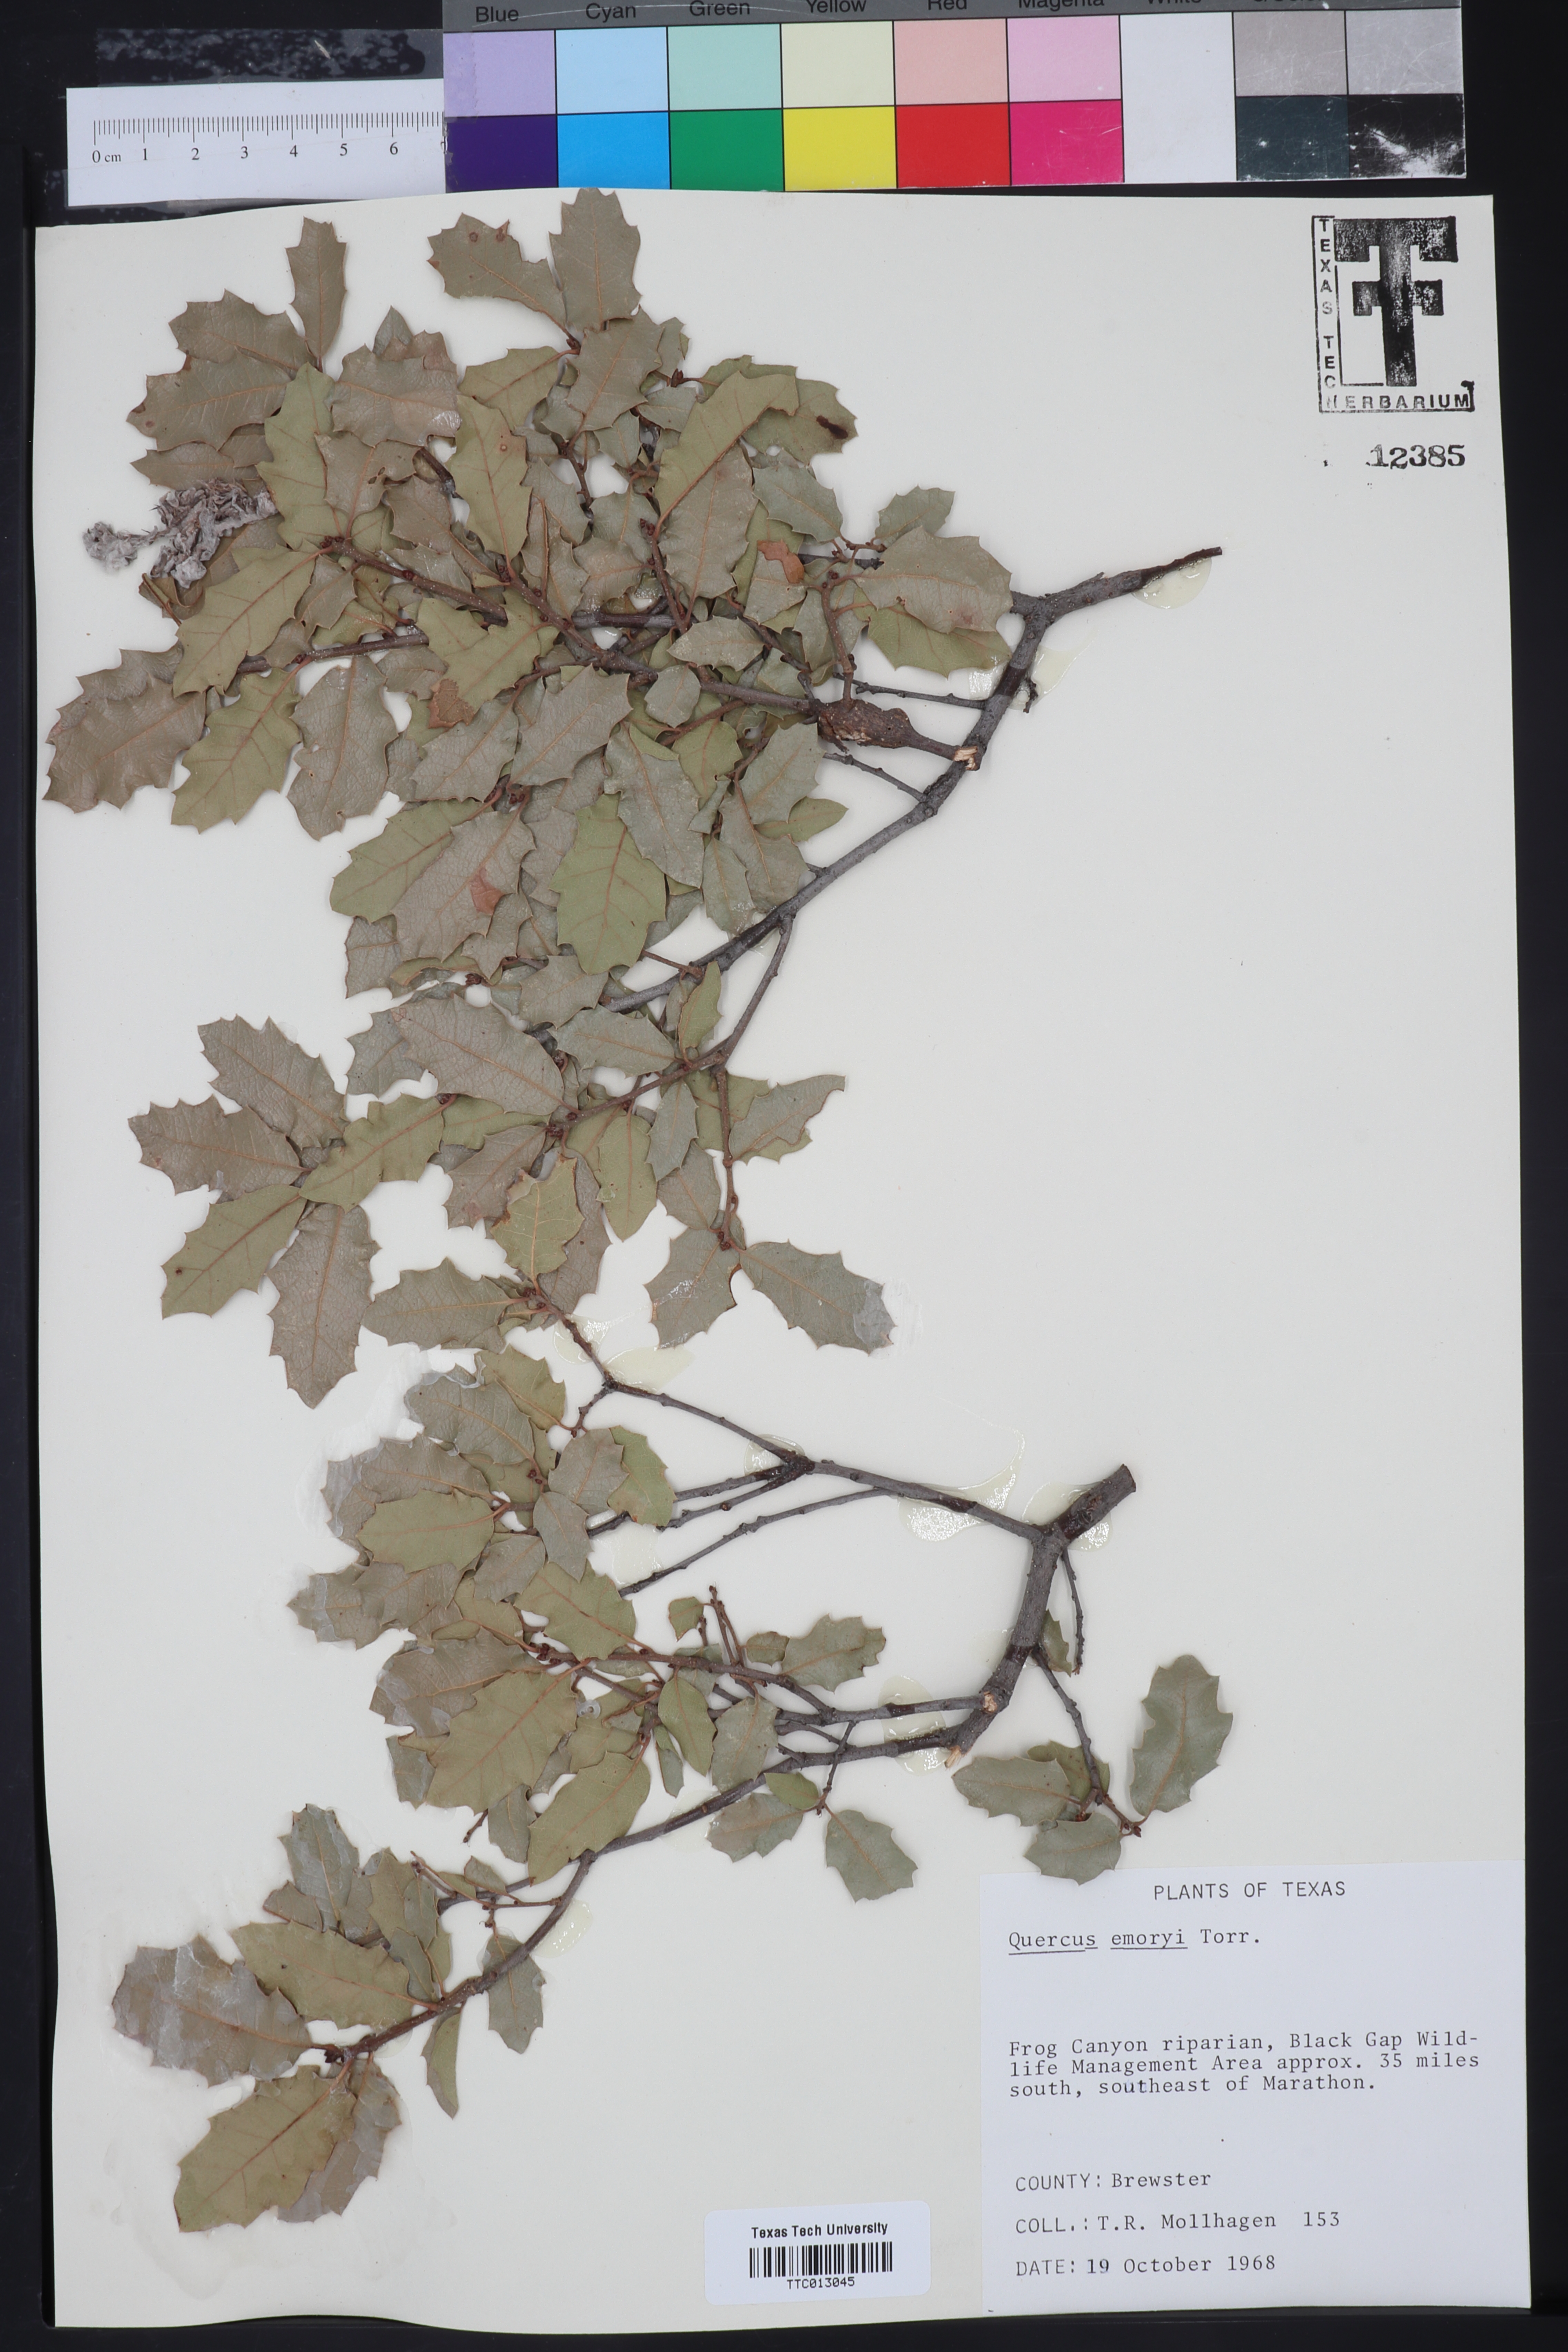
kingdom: Plantae
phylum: Tracheophyta
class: Magnoliopsida
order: Fagales
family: Fagaceae
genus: Quercus
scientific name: Quercus emoryi
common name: Emory oak
